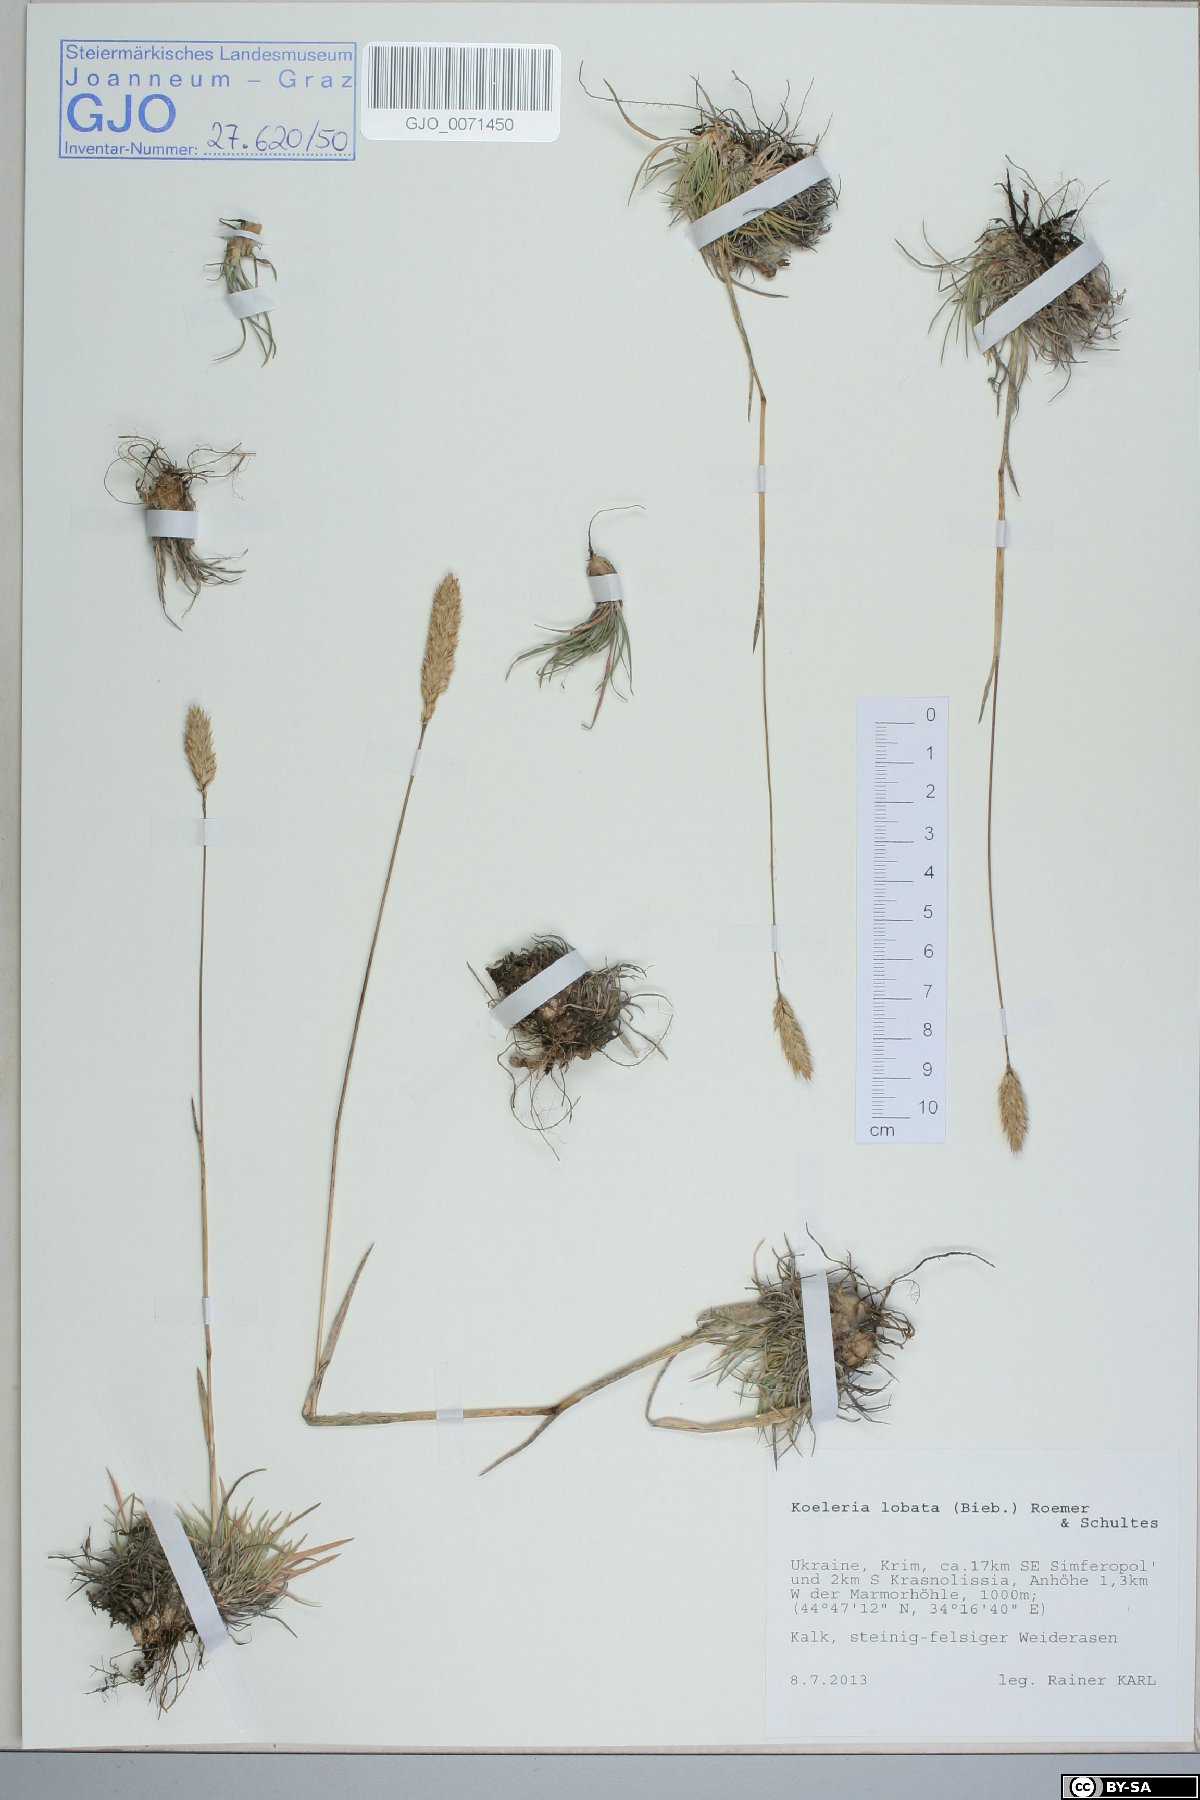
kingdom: Plantae
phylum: Tracheophyta
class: Liliopsida
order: Poales
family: Poaceae
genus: Koeleria
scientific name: Koeleria brevis
